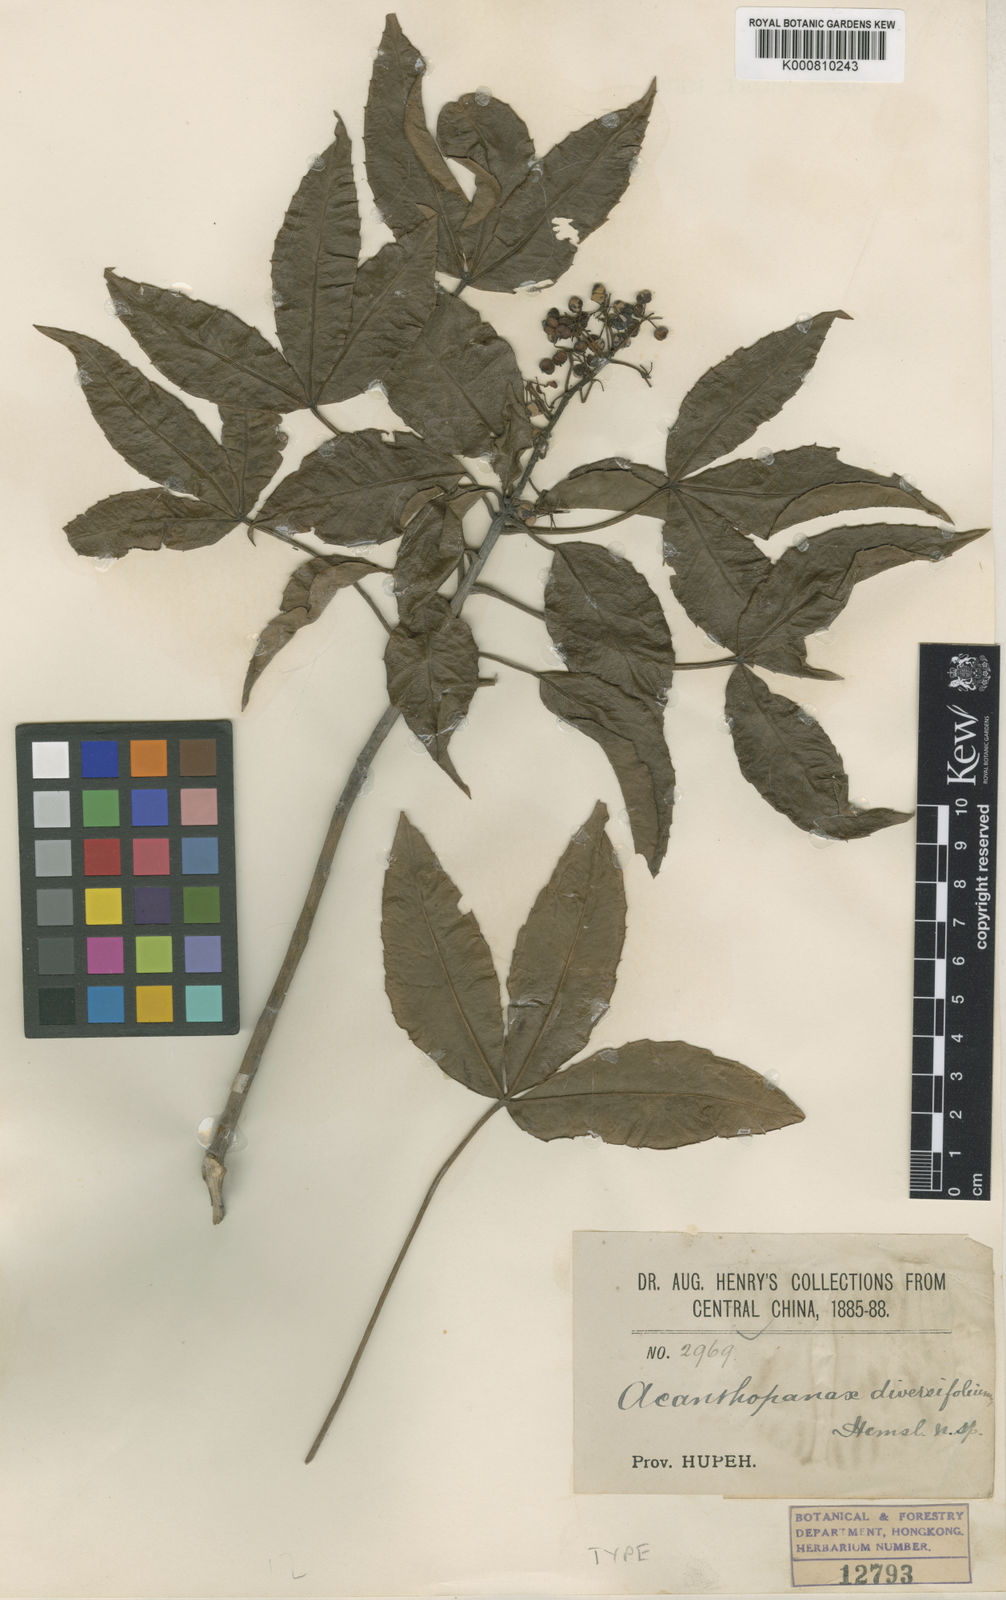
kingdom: Plantae
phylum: Tracheophyta
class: Magnoliopsida
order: Apiales
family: Araliaceae
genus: Metapanax
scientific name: Metapanax davidii
